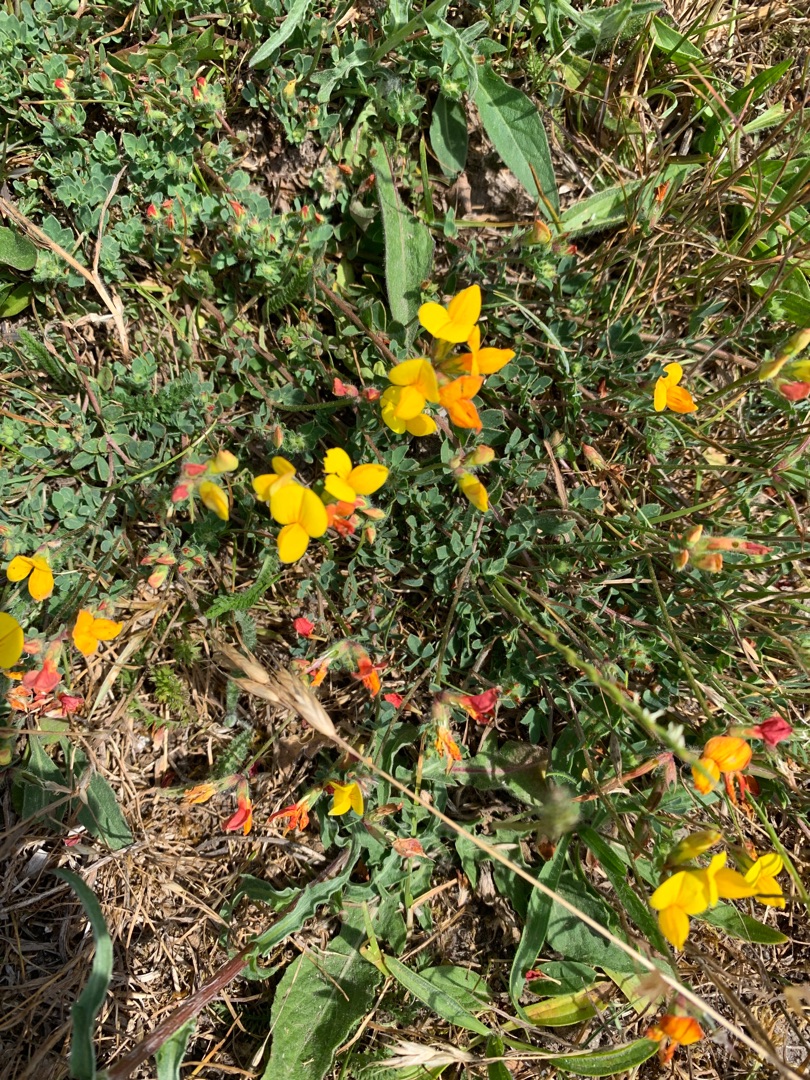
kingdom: Plantae
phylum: Tracheophyta
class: Magnoliopsida
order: Fabales
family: Fabaceae
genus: Lotus
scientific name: Lotus corniculatus
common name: Almindelig kællingetand
